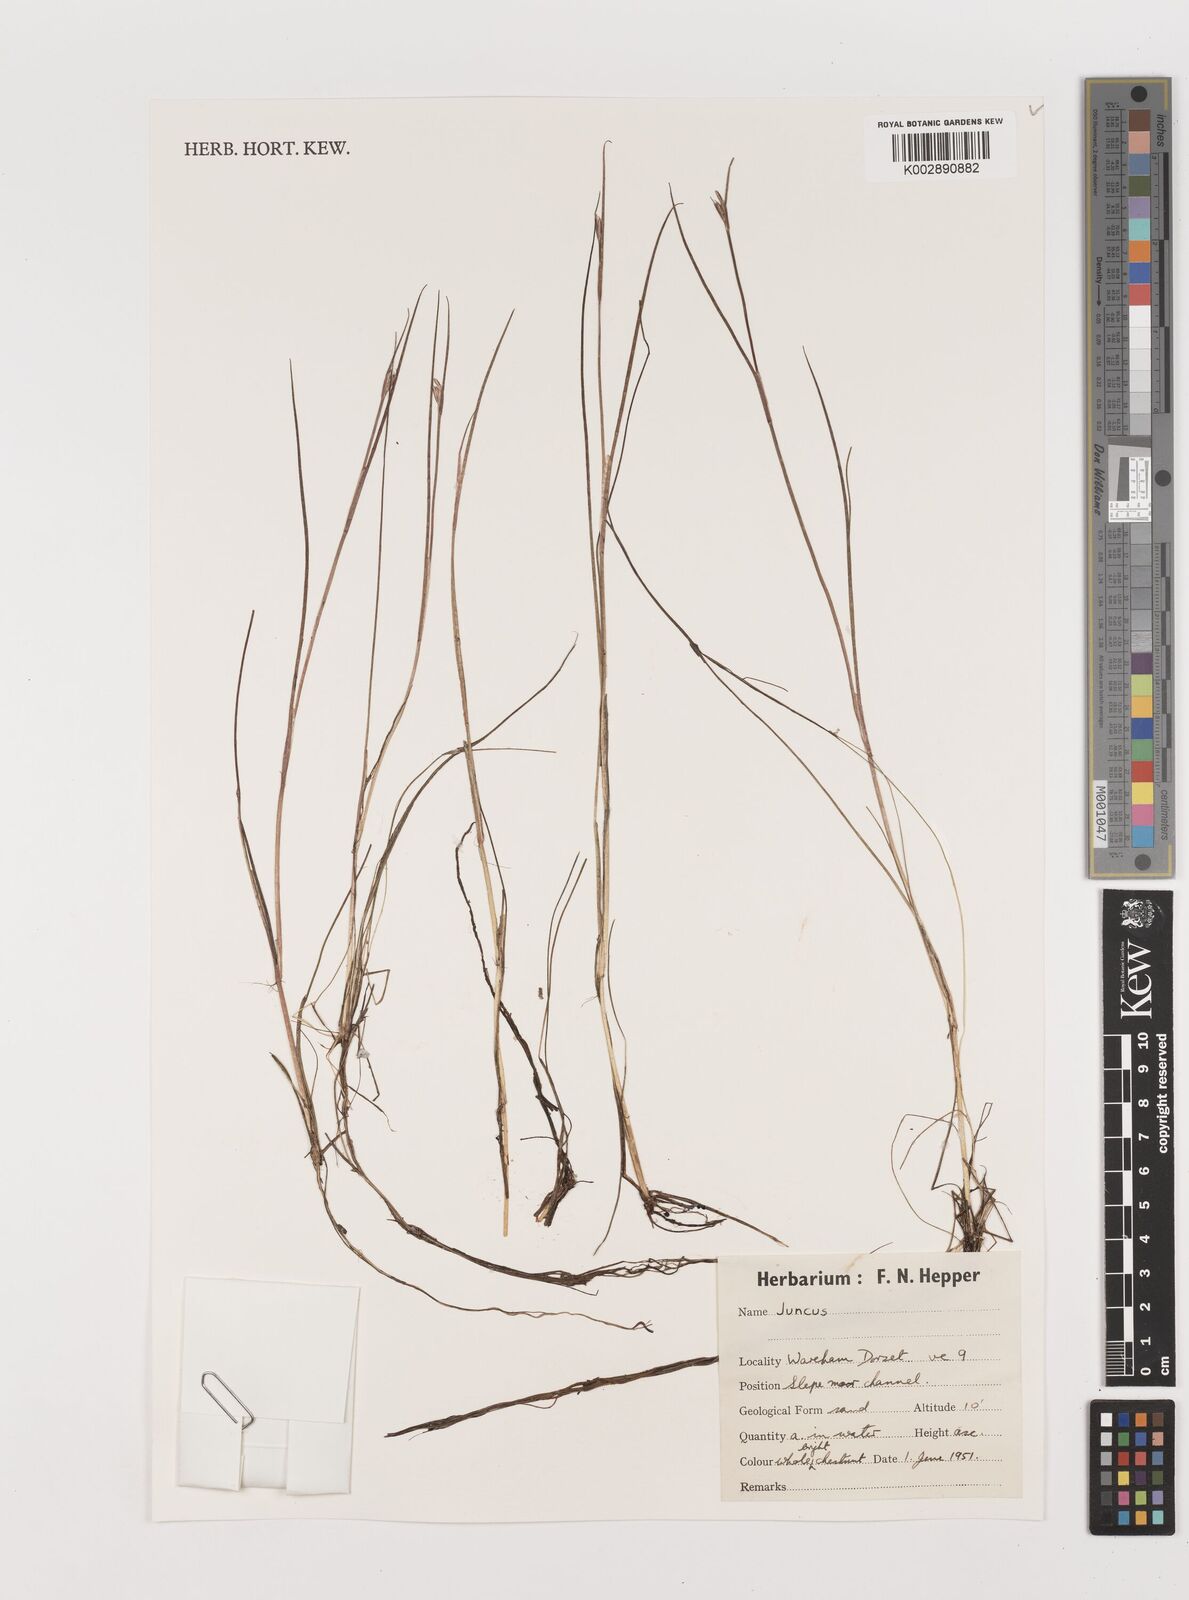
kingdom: Plantae
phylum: Tracheophyta
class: Liliopsida
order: Poales
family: Juncaceae
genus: Juncus
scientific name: Juncus
